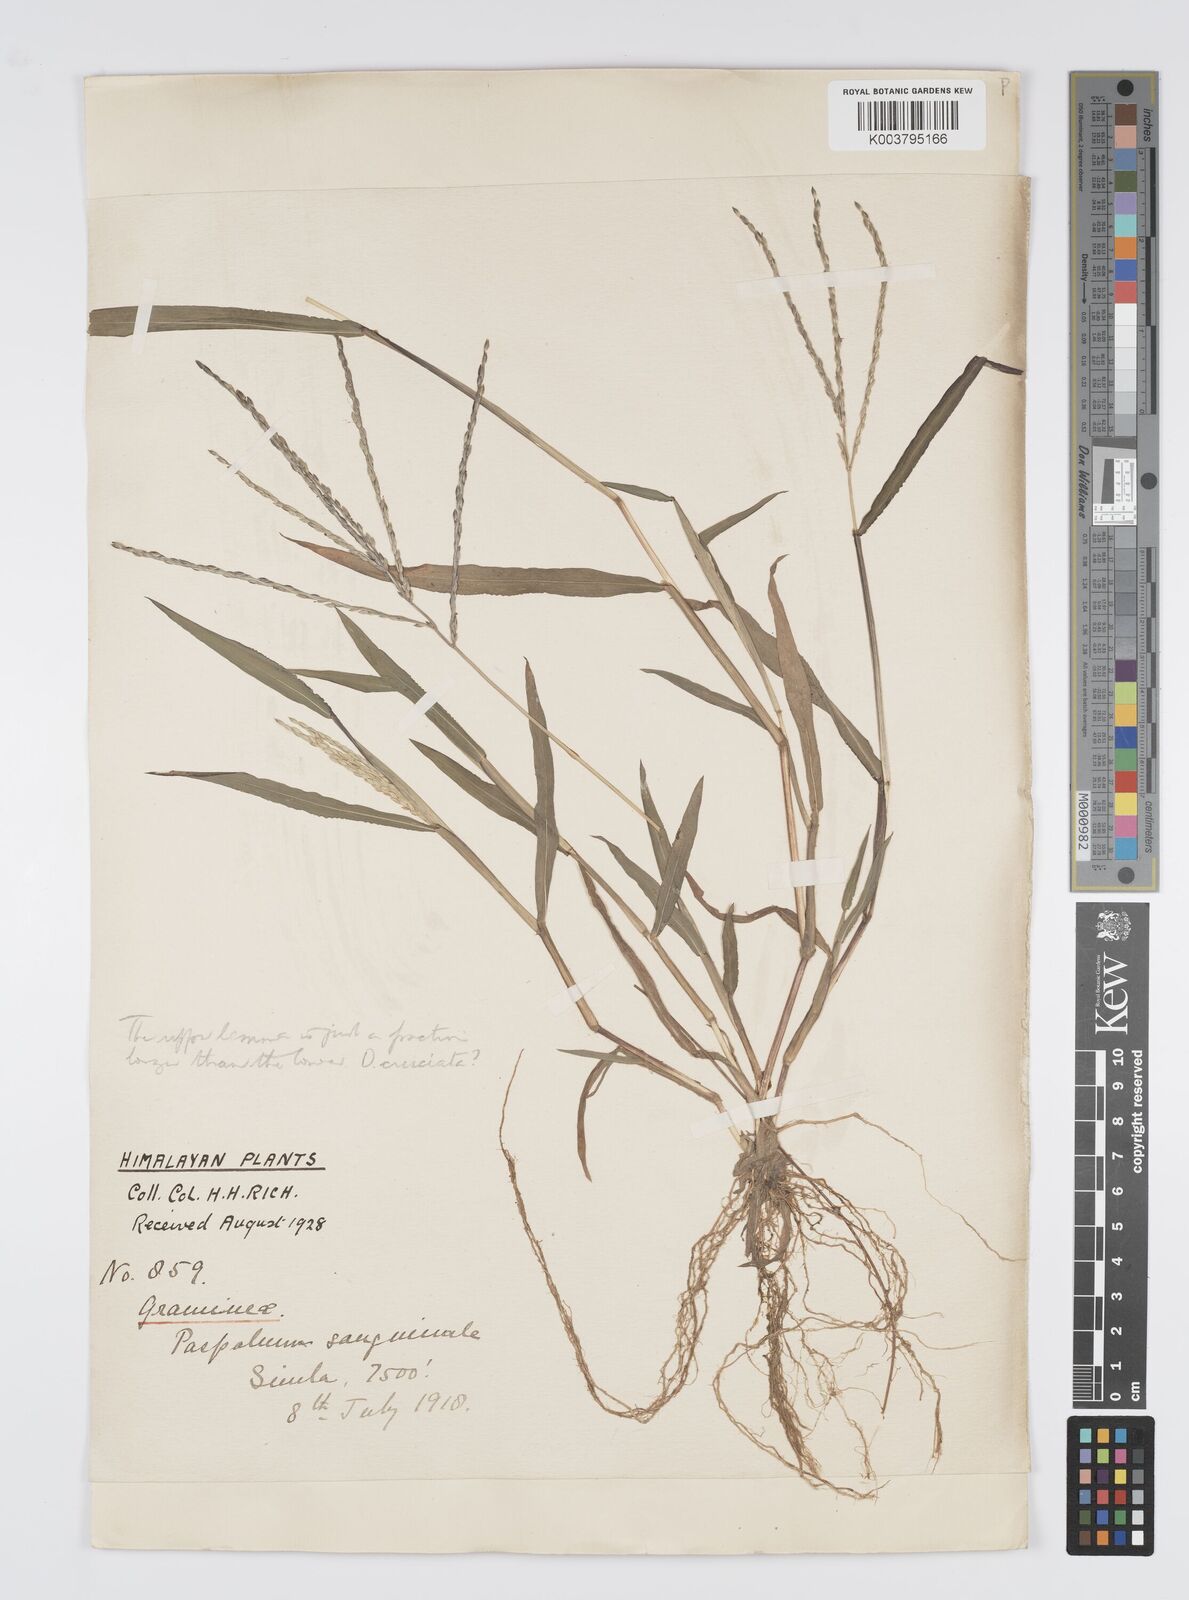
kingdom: Plantae
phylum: Tracheophyta
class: Liliopsida
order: Poales
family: Poaceae
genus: Digitaria
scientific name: Digitaria ciliaris
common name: Tropical finger-grass
